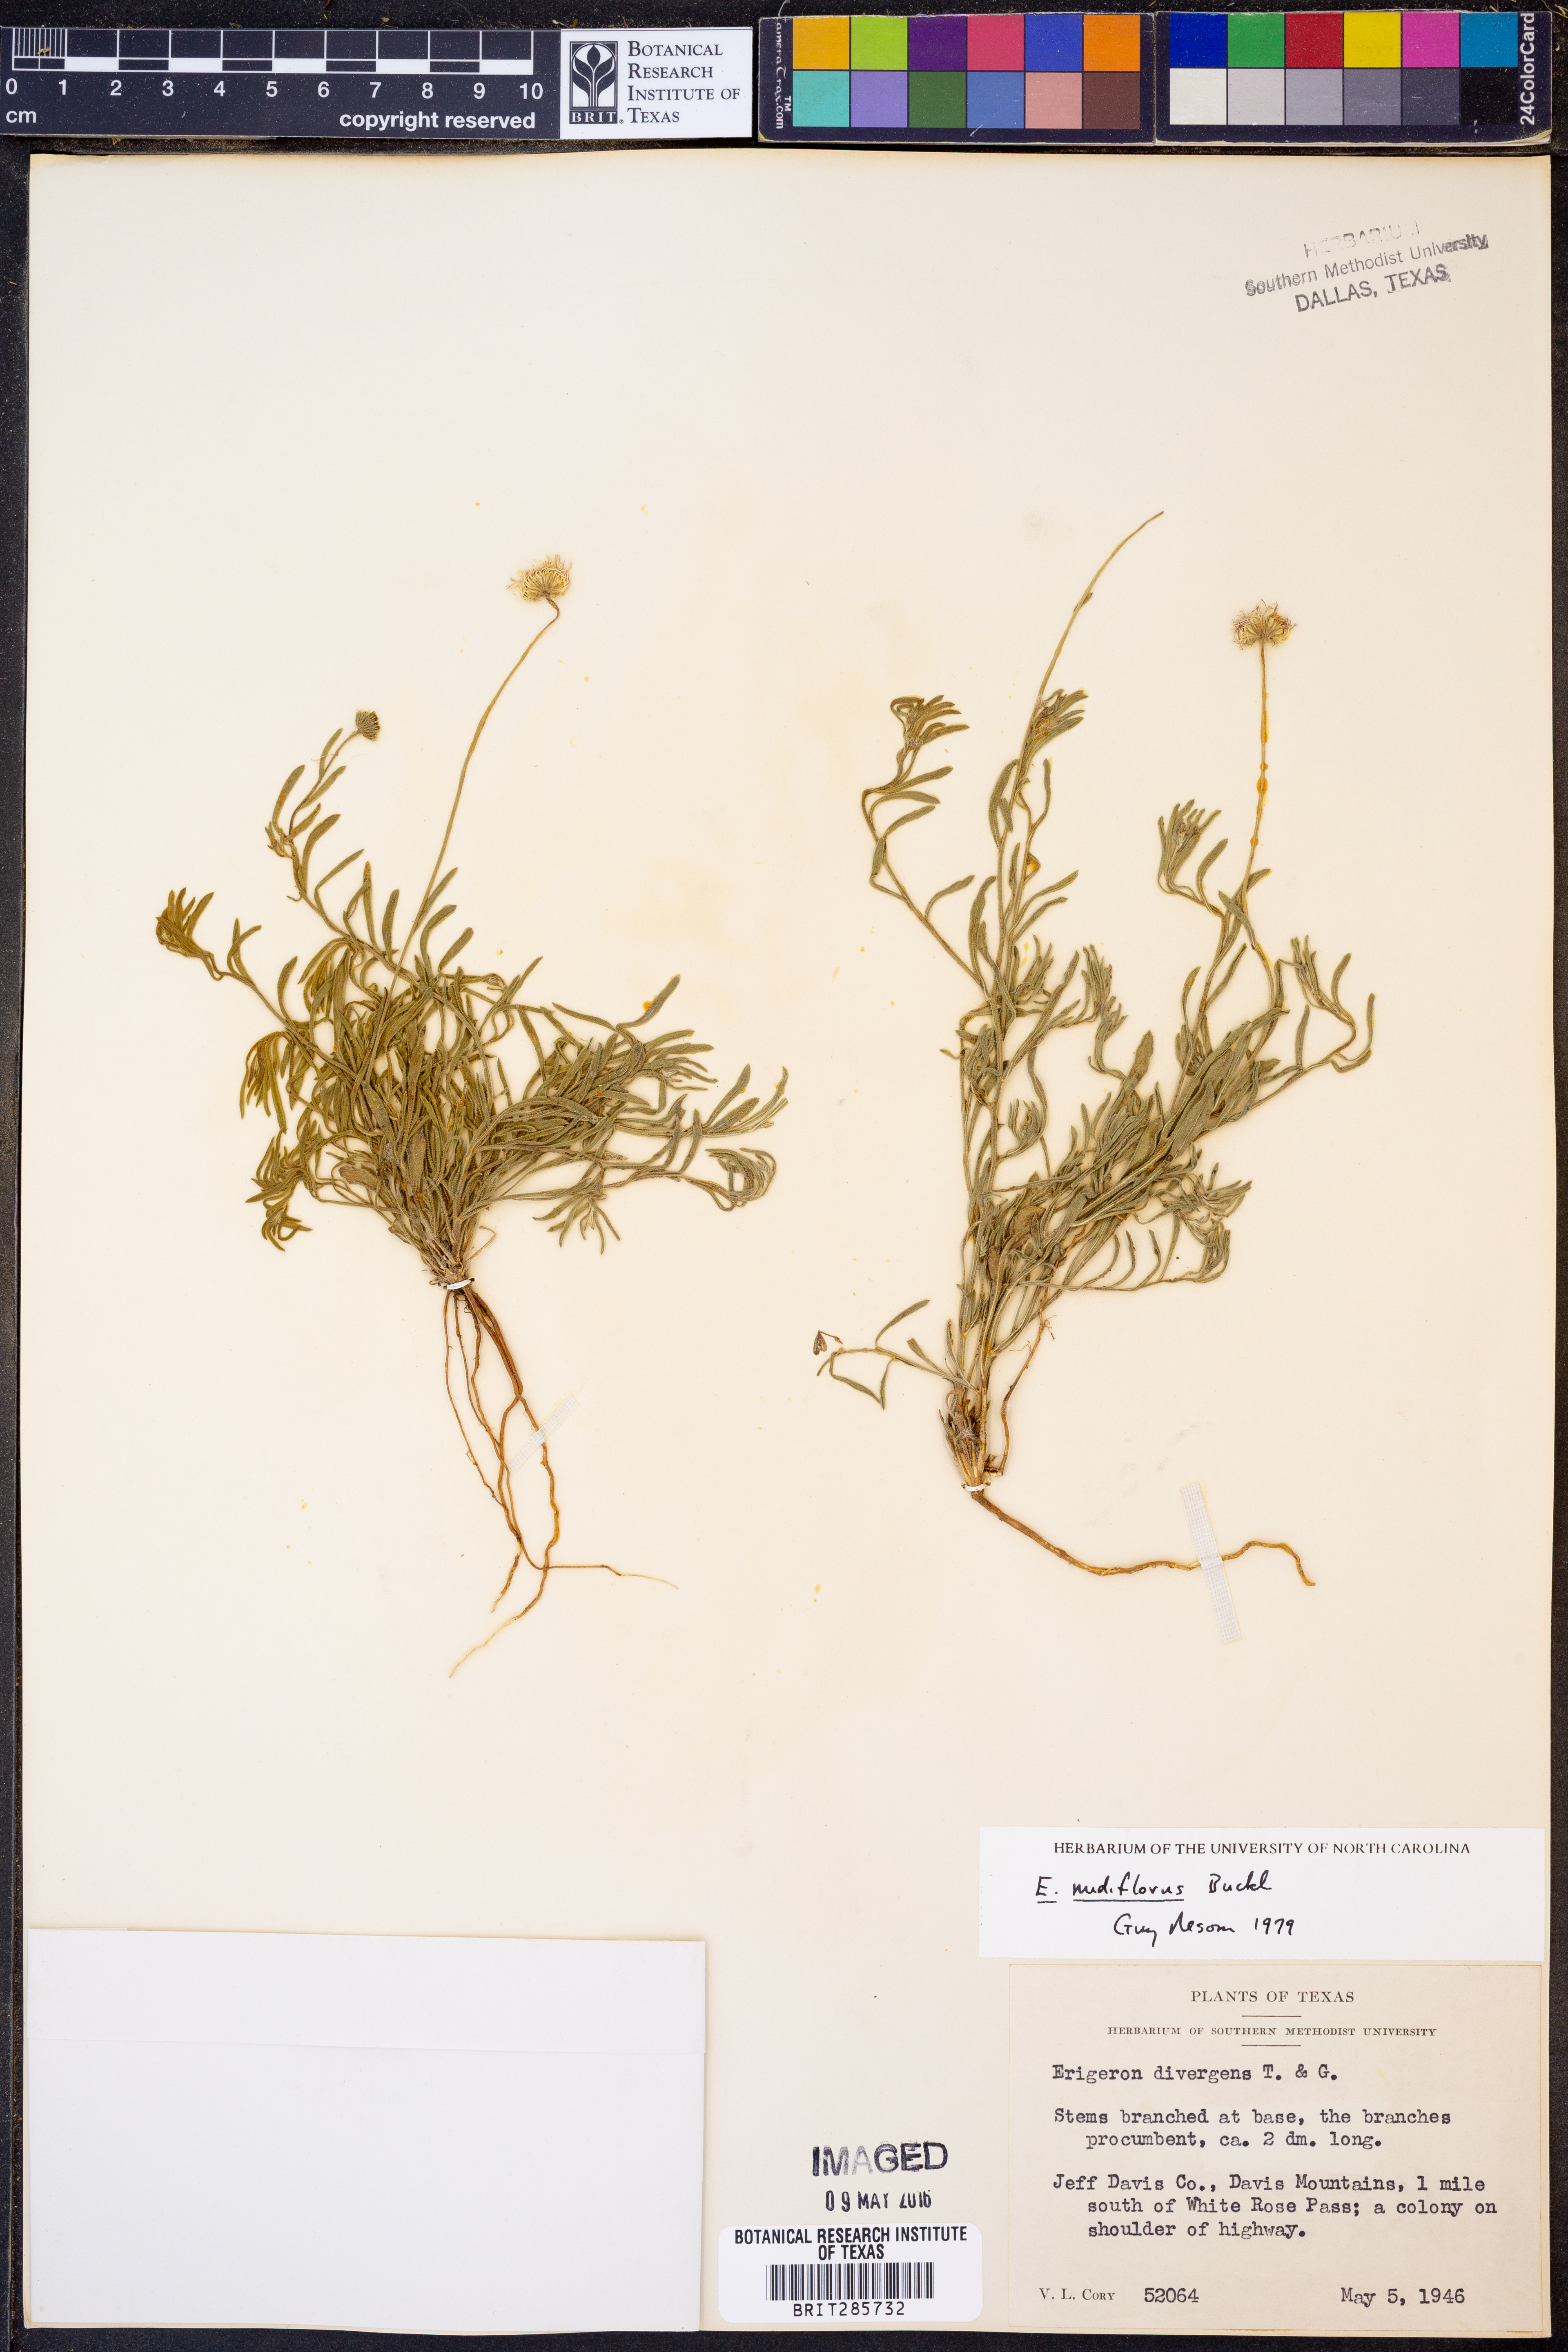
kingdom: Plantae
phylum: Tracheophyta
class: Magnoliopsida
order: Asterales
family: Asteraceae
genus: Erigeron
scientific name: Erigeron flagellaris
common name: Running fleabane
